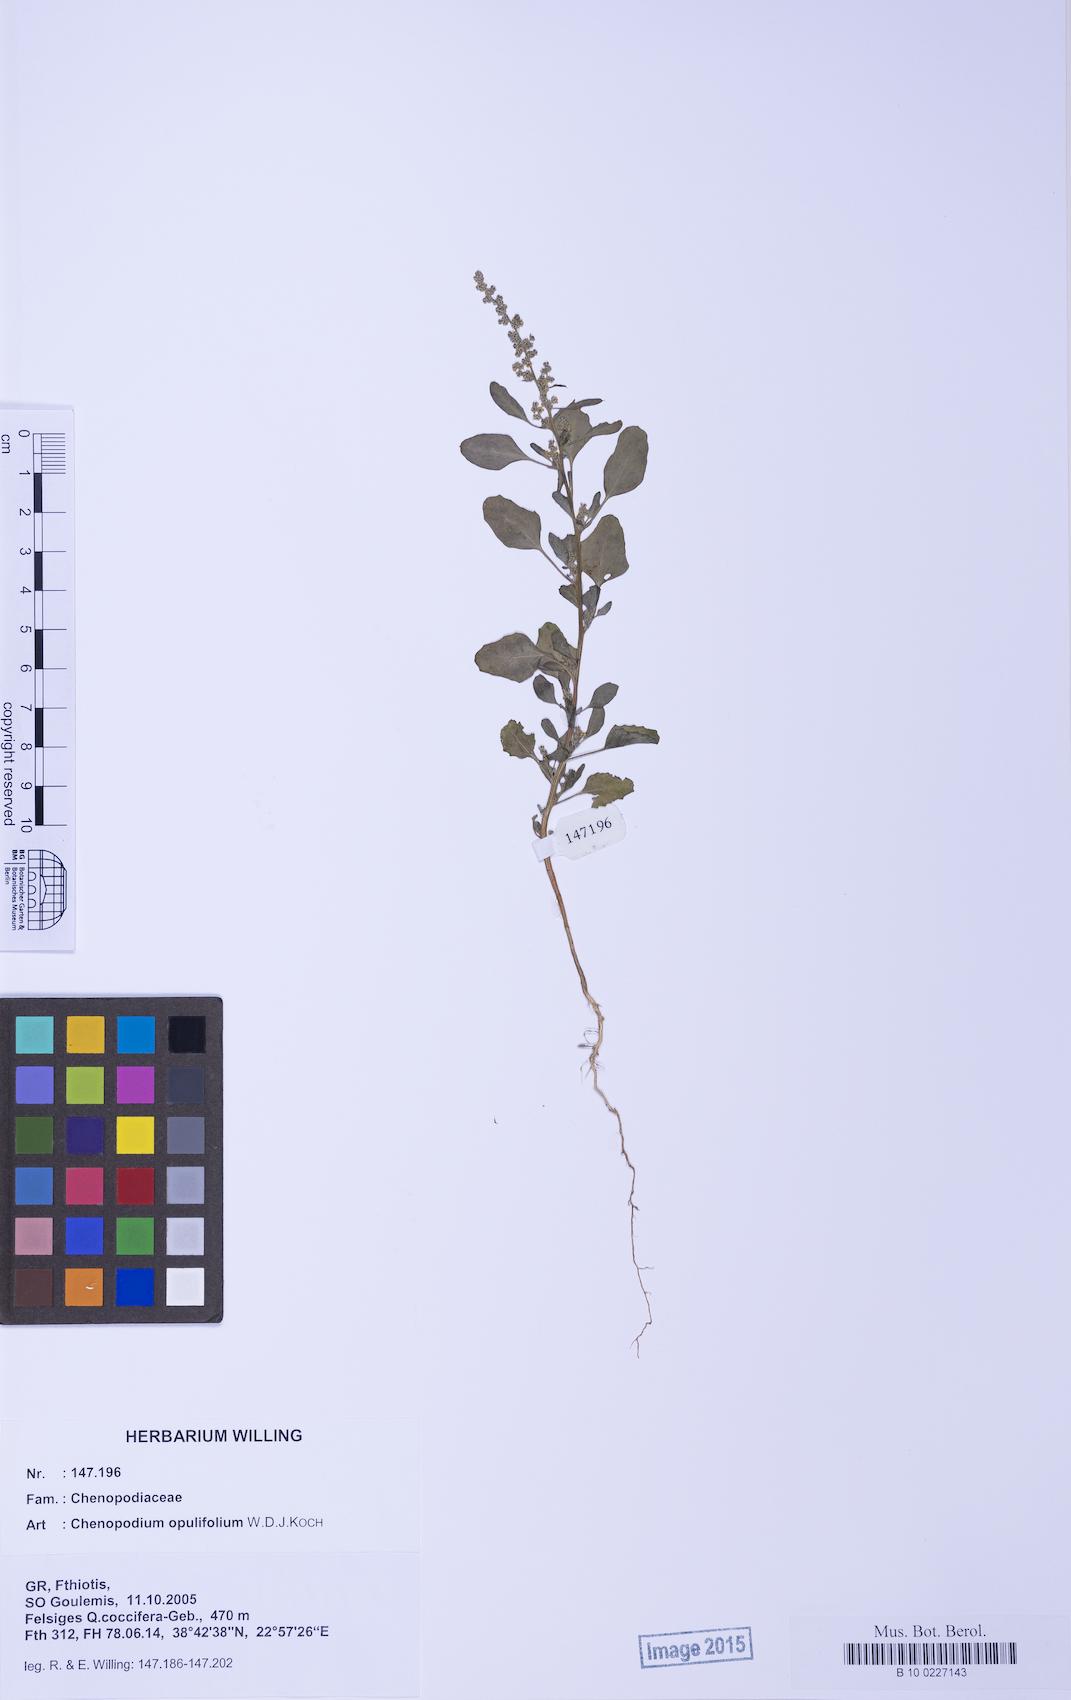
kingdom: Plantae
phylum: Tracheophyta
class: Magnoliopsida
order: Caryophyllales
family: Amaranthaceae
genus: Chenopodium
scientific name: Chenopodium opulifolium
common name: Grey goosefoot
